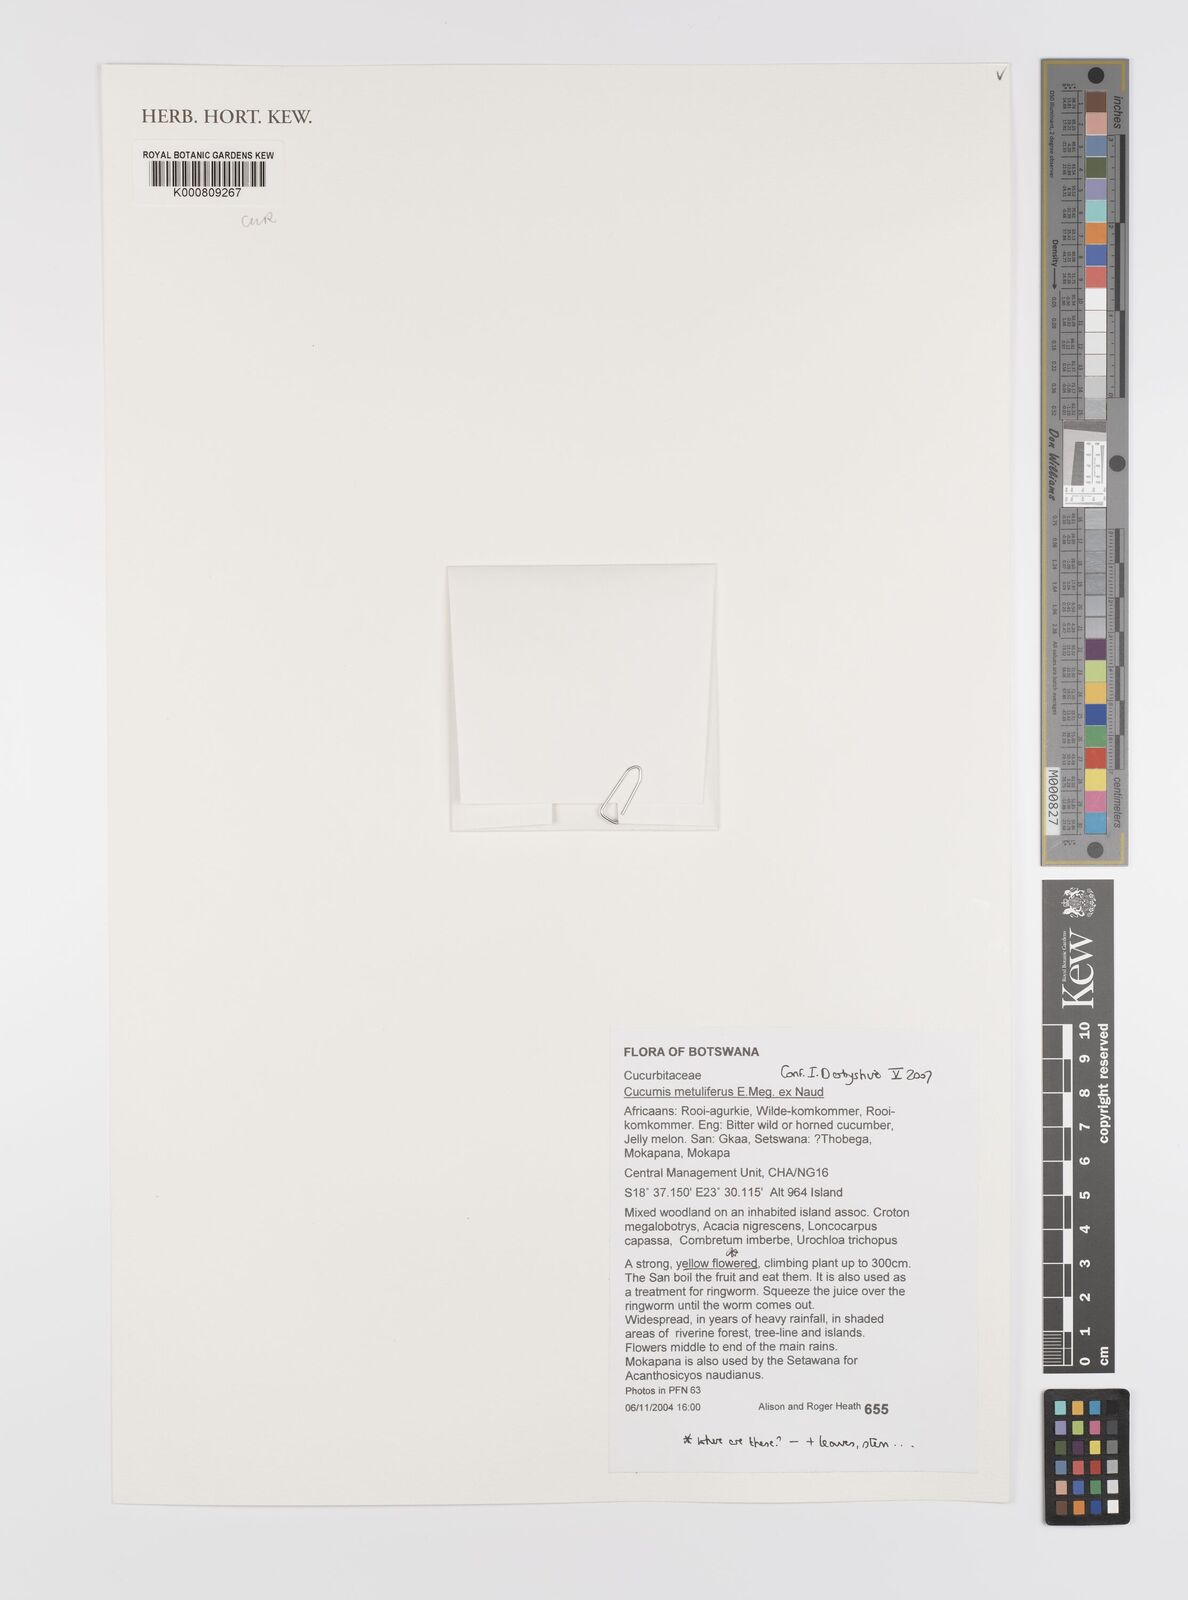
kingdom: Plantae
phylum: Tracheophyta
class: Magnoliopsida
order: Cucurbitales
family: Cucurbitaceae
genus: Cucumis
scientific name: Cucumis
